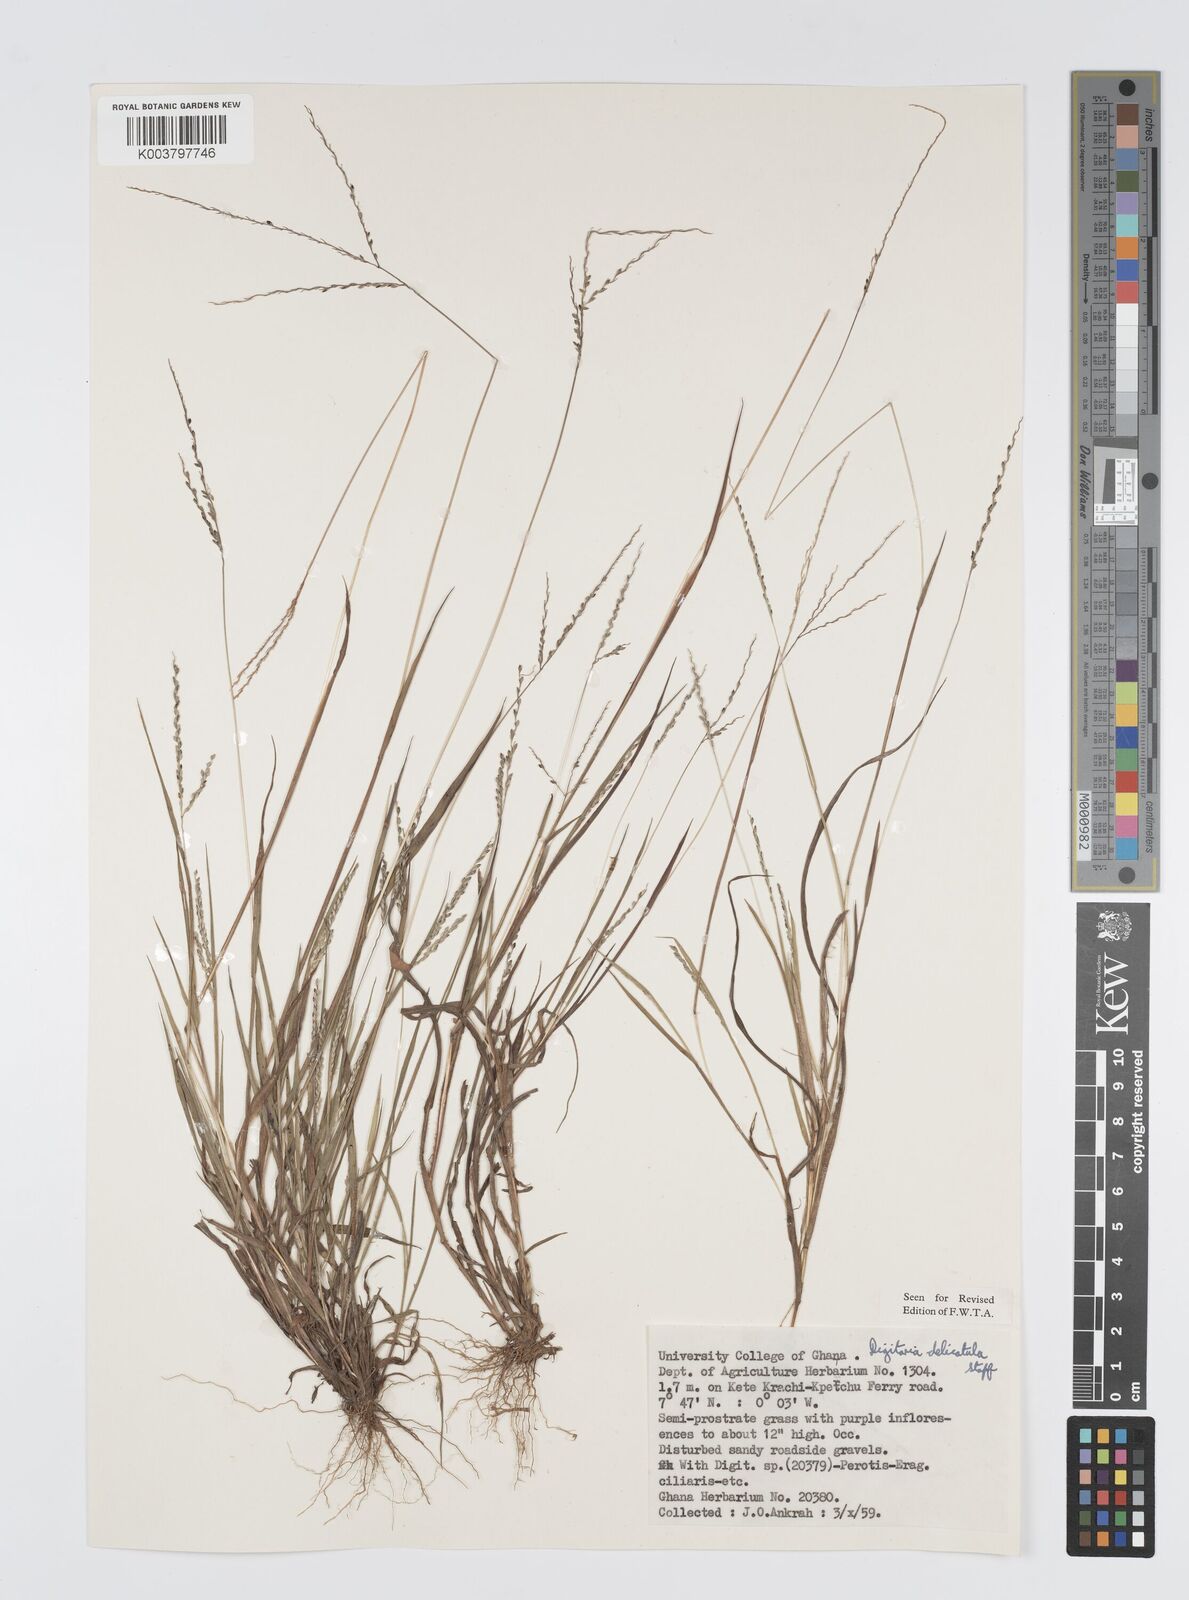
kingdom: Plantae
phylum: Tracheophyta
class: Liliopsida
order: Poales
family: Poaceae
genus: Digitaria
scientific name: Digitaria delicatula
